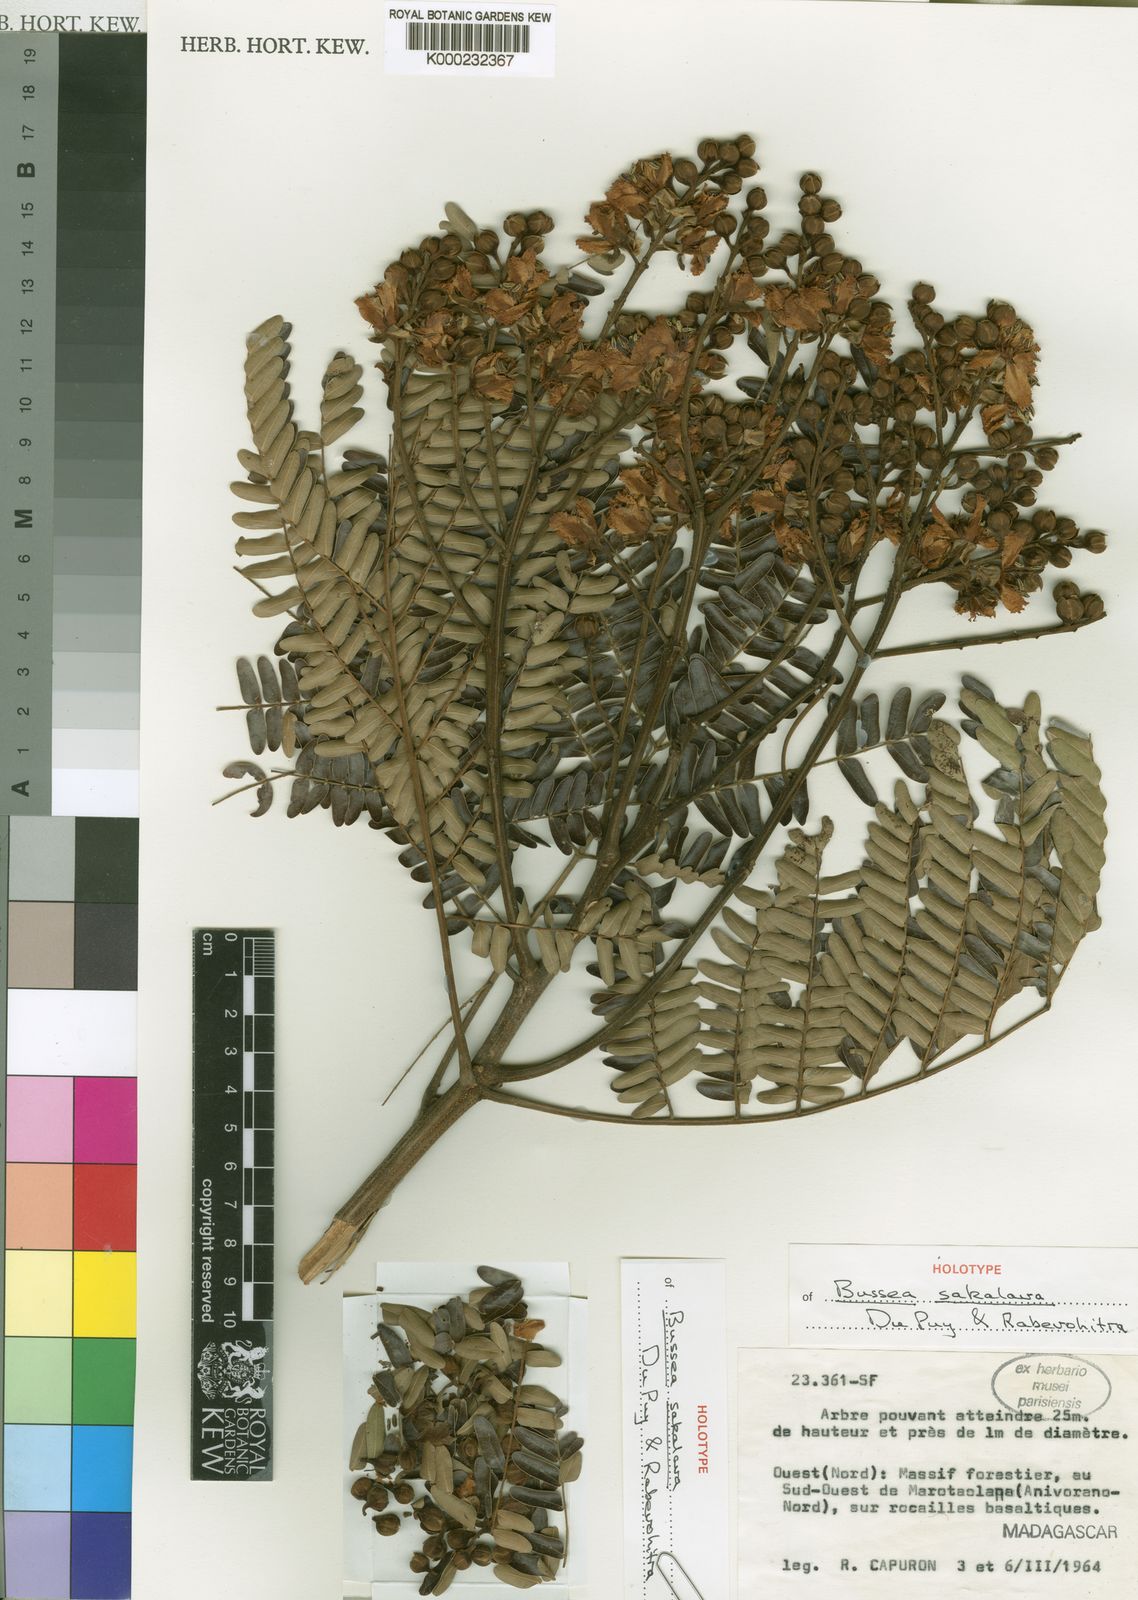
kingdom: Plantae
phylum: Tracheophyta
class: Magnoliopsida
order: Fabales
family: Fabaceae
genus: Bussea
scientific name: Bussea sakalava
